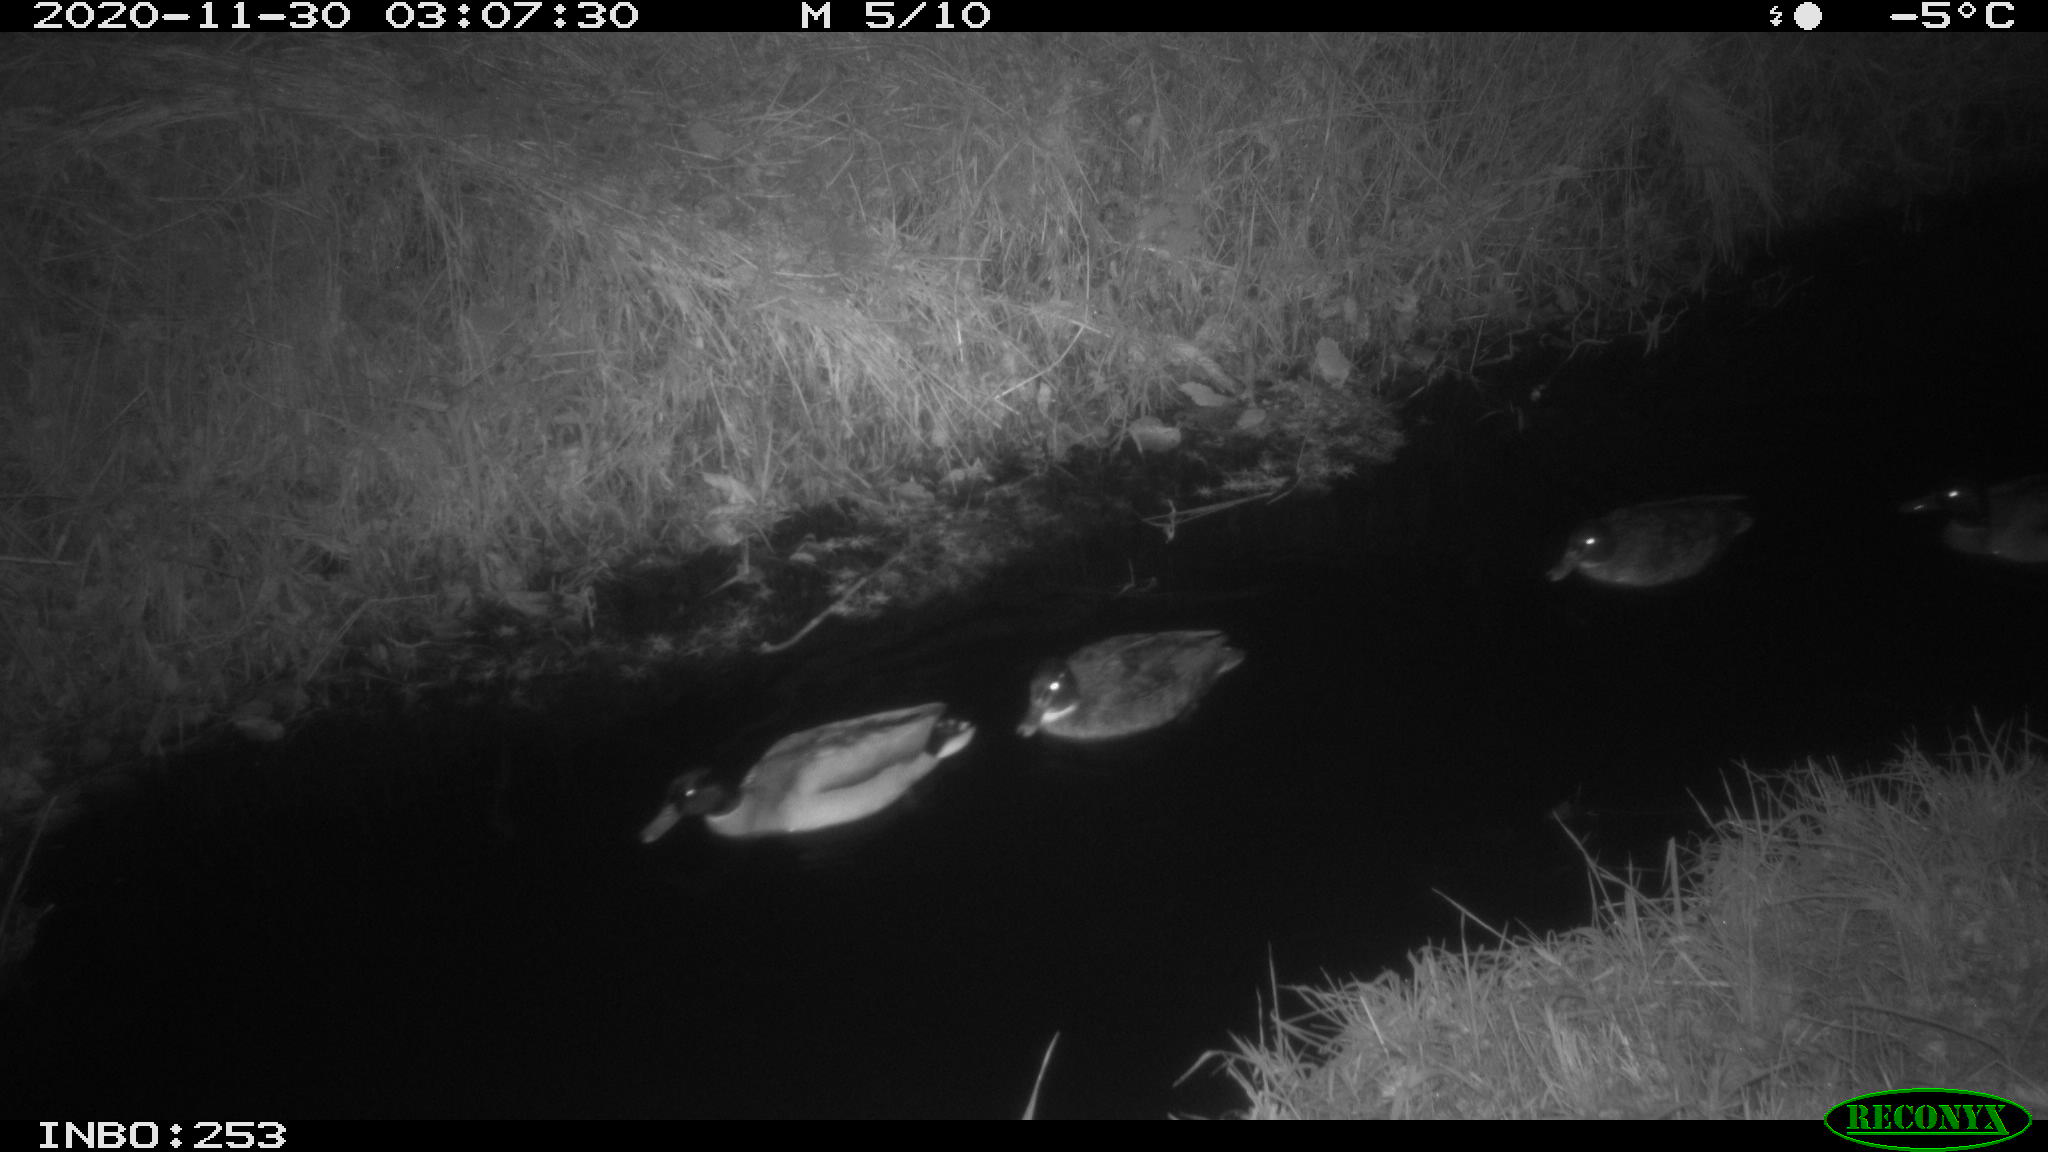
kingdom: Animalia
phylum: Chordata
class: Aves
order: Anseriformes
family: Anatidae
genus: Anas
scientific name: Anas platyrhynchos
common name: Mallard
